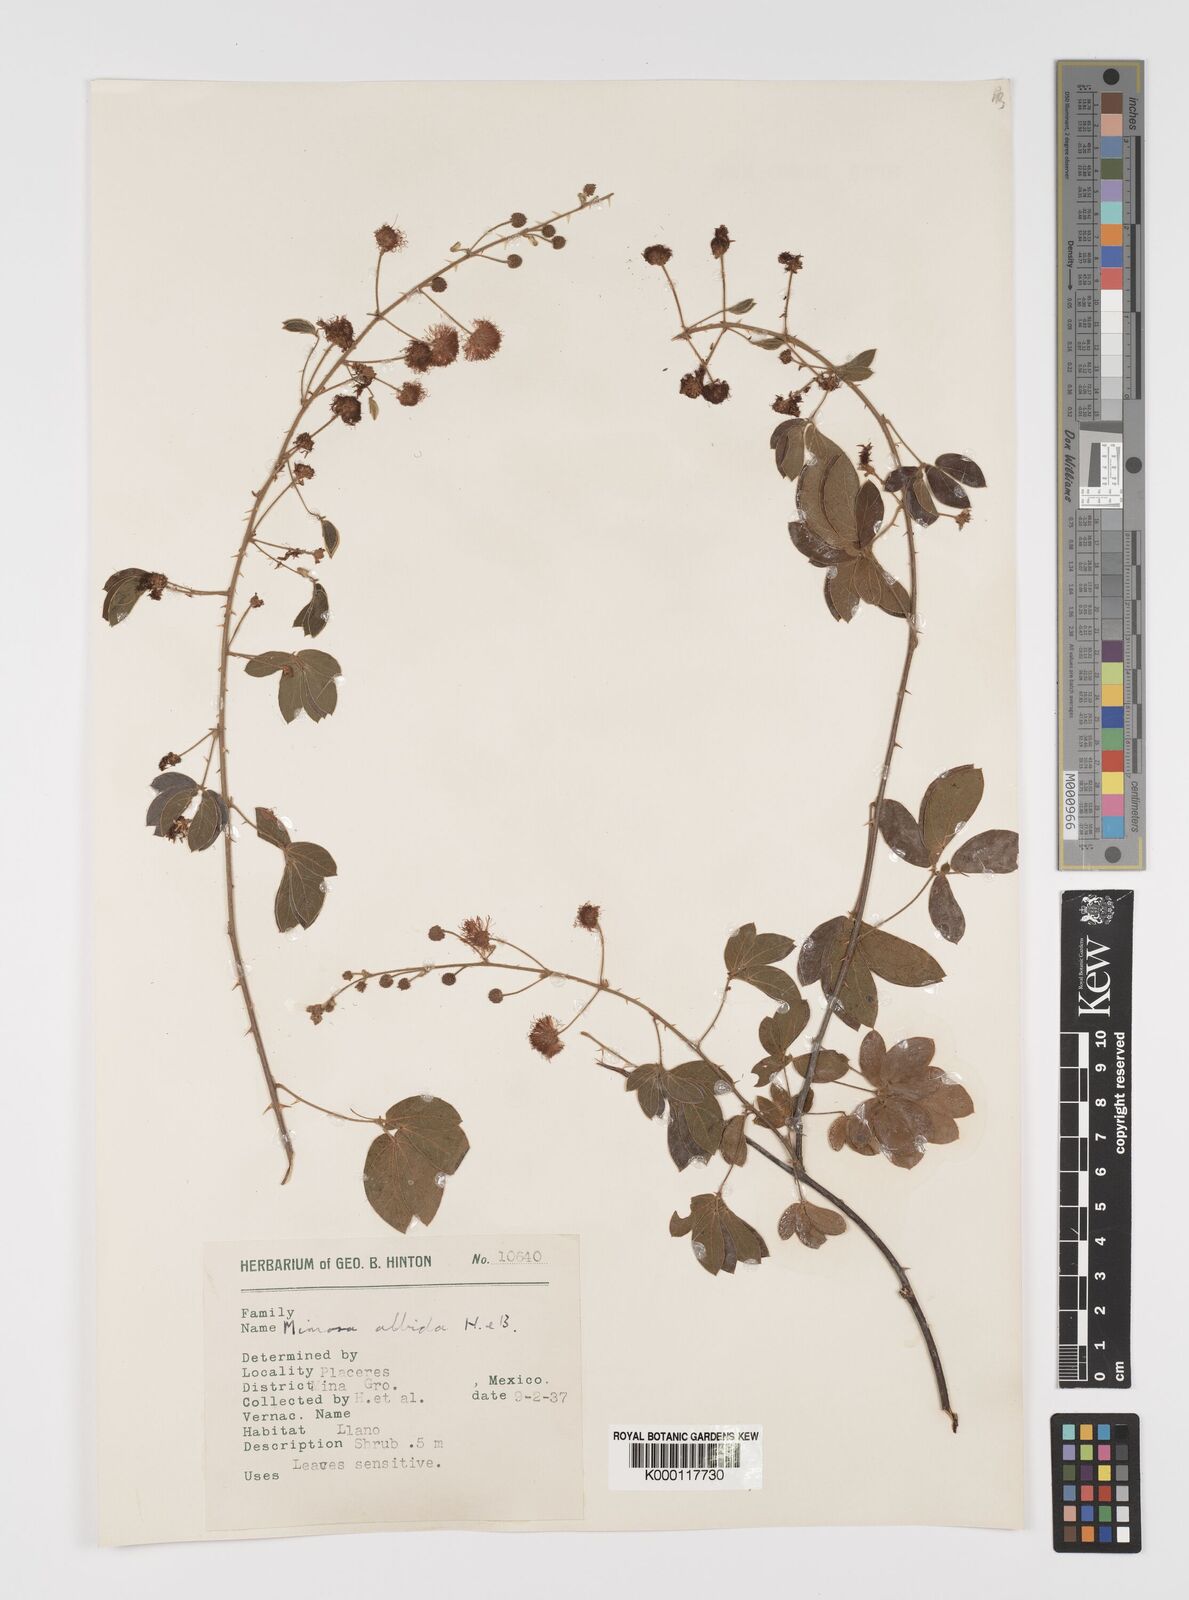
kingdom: Plantae
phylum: Tracheophyta
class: Magnoliopsida
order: Fabales
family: Fabaceae
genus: Mimosa
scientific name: Mimosa albida
